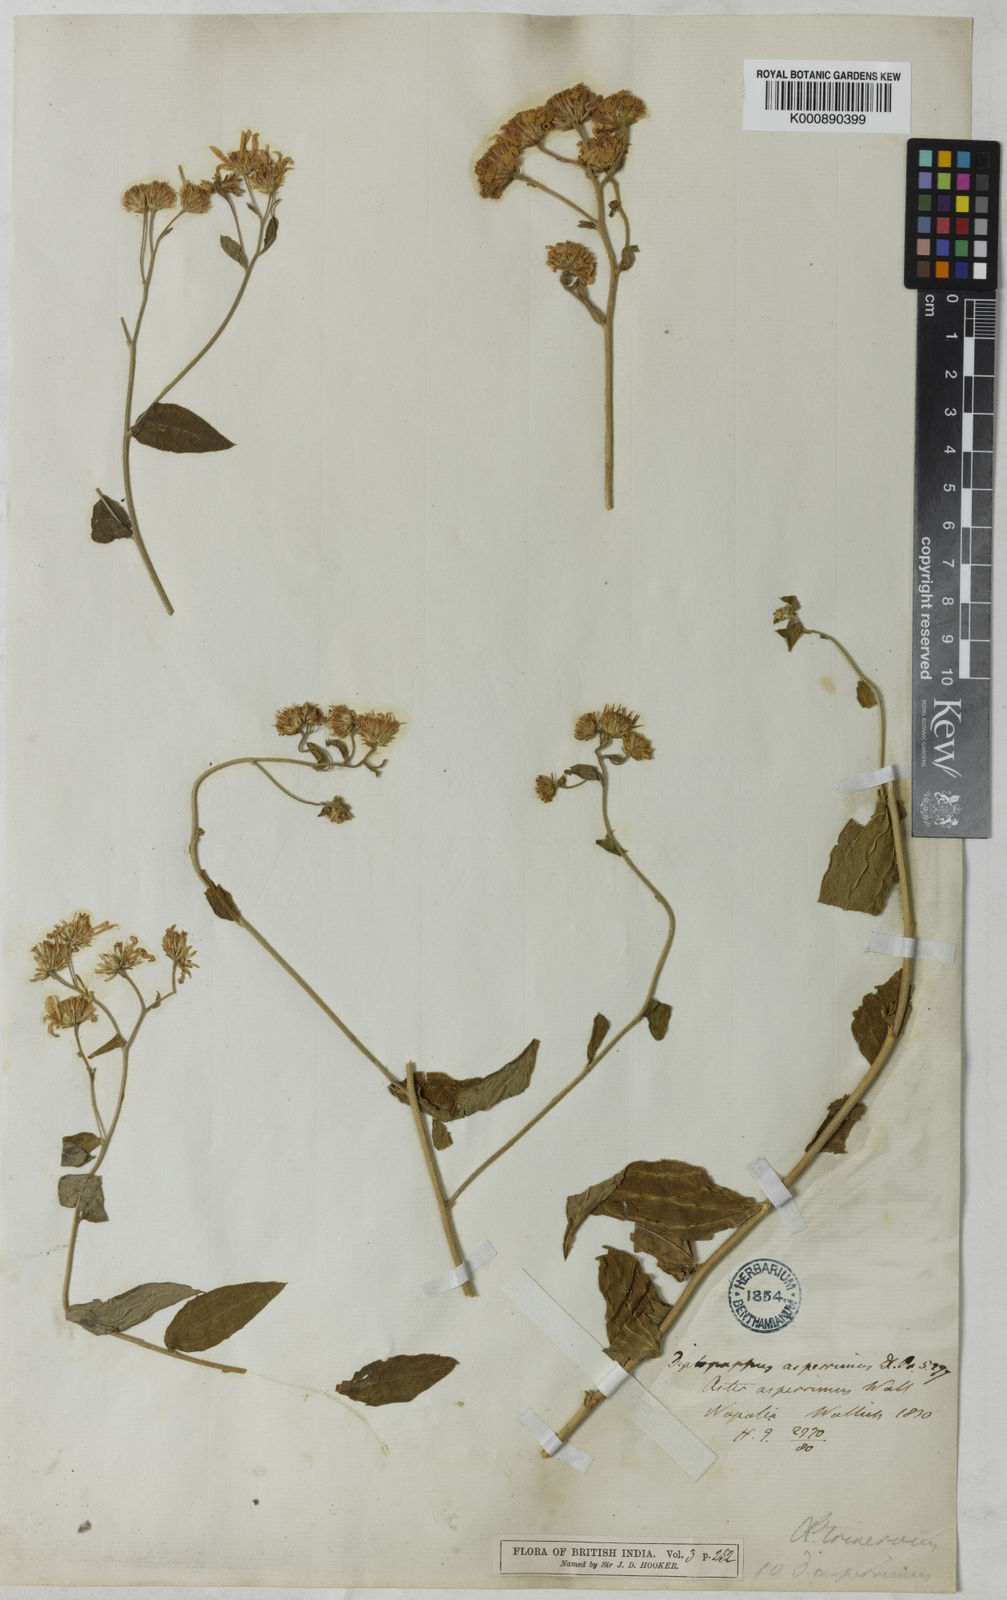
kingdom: Plantae
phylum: Tracheophyta
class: Magnoliopsida
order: Asterales
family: Asteraceae
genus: Aster
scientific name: Aster
